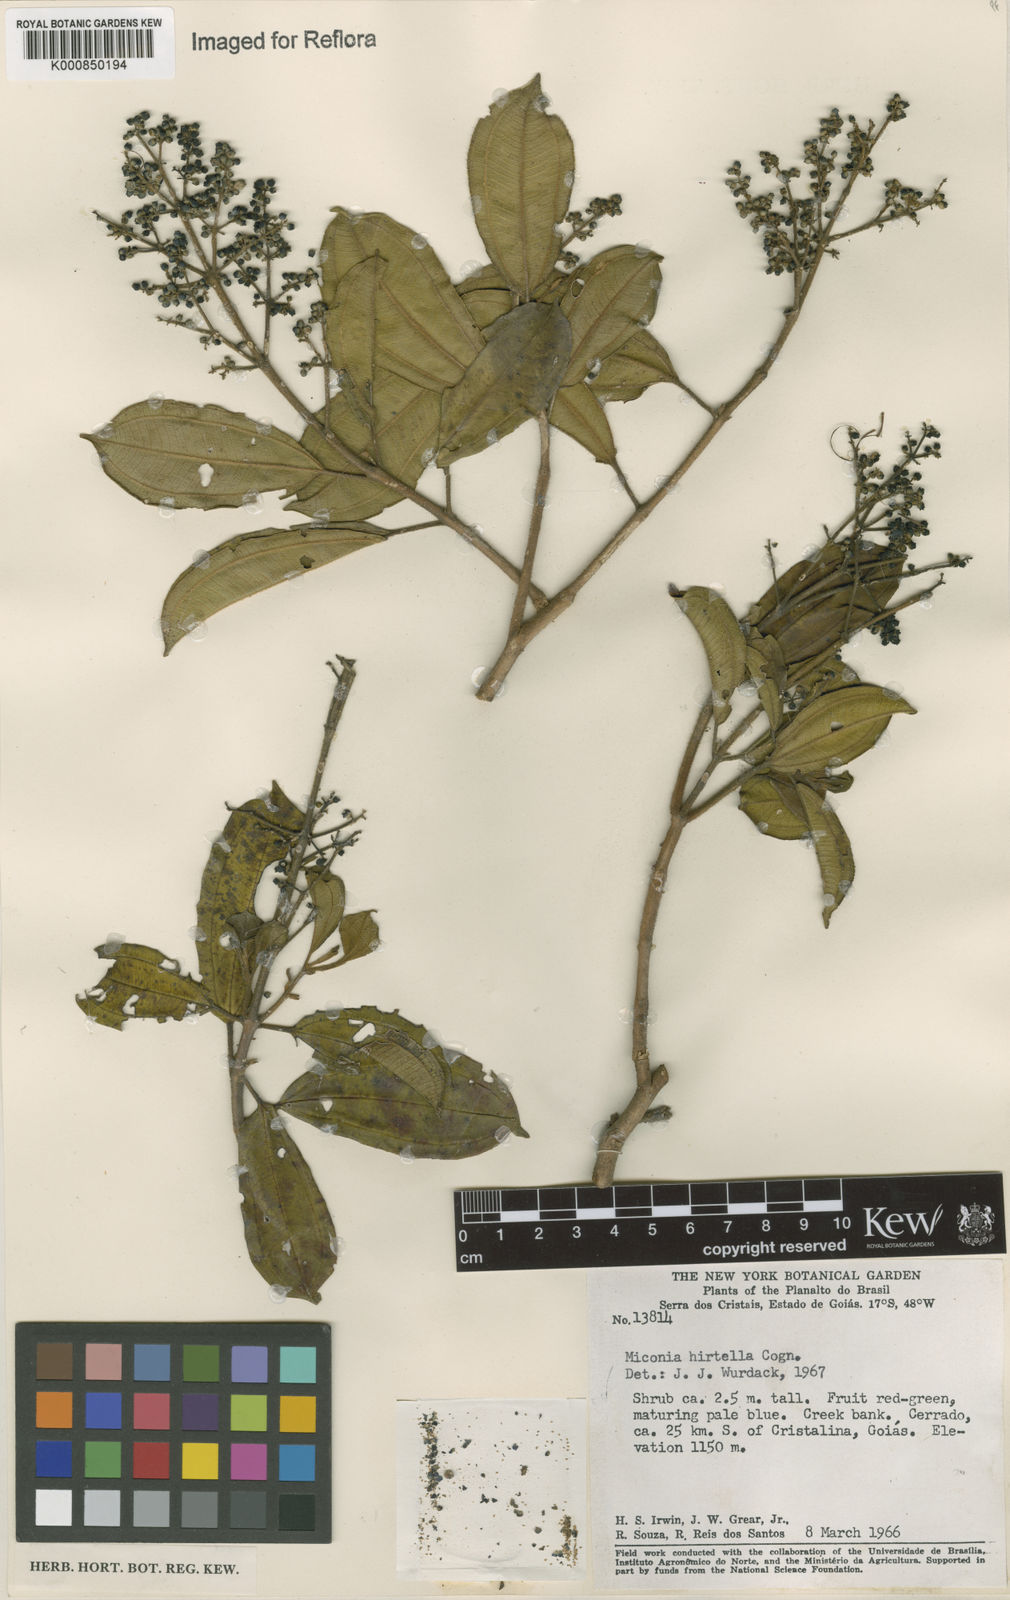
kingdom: Plantae
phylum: Tracheophyta
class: Magnoliopsida
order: Myrtales
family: Melastomataceae
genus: Miconia
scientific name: Miconia hirta
